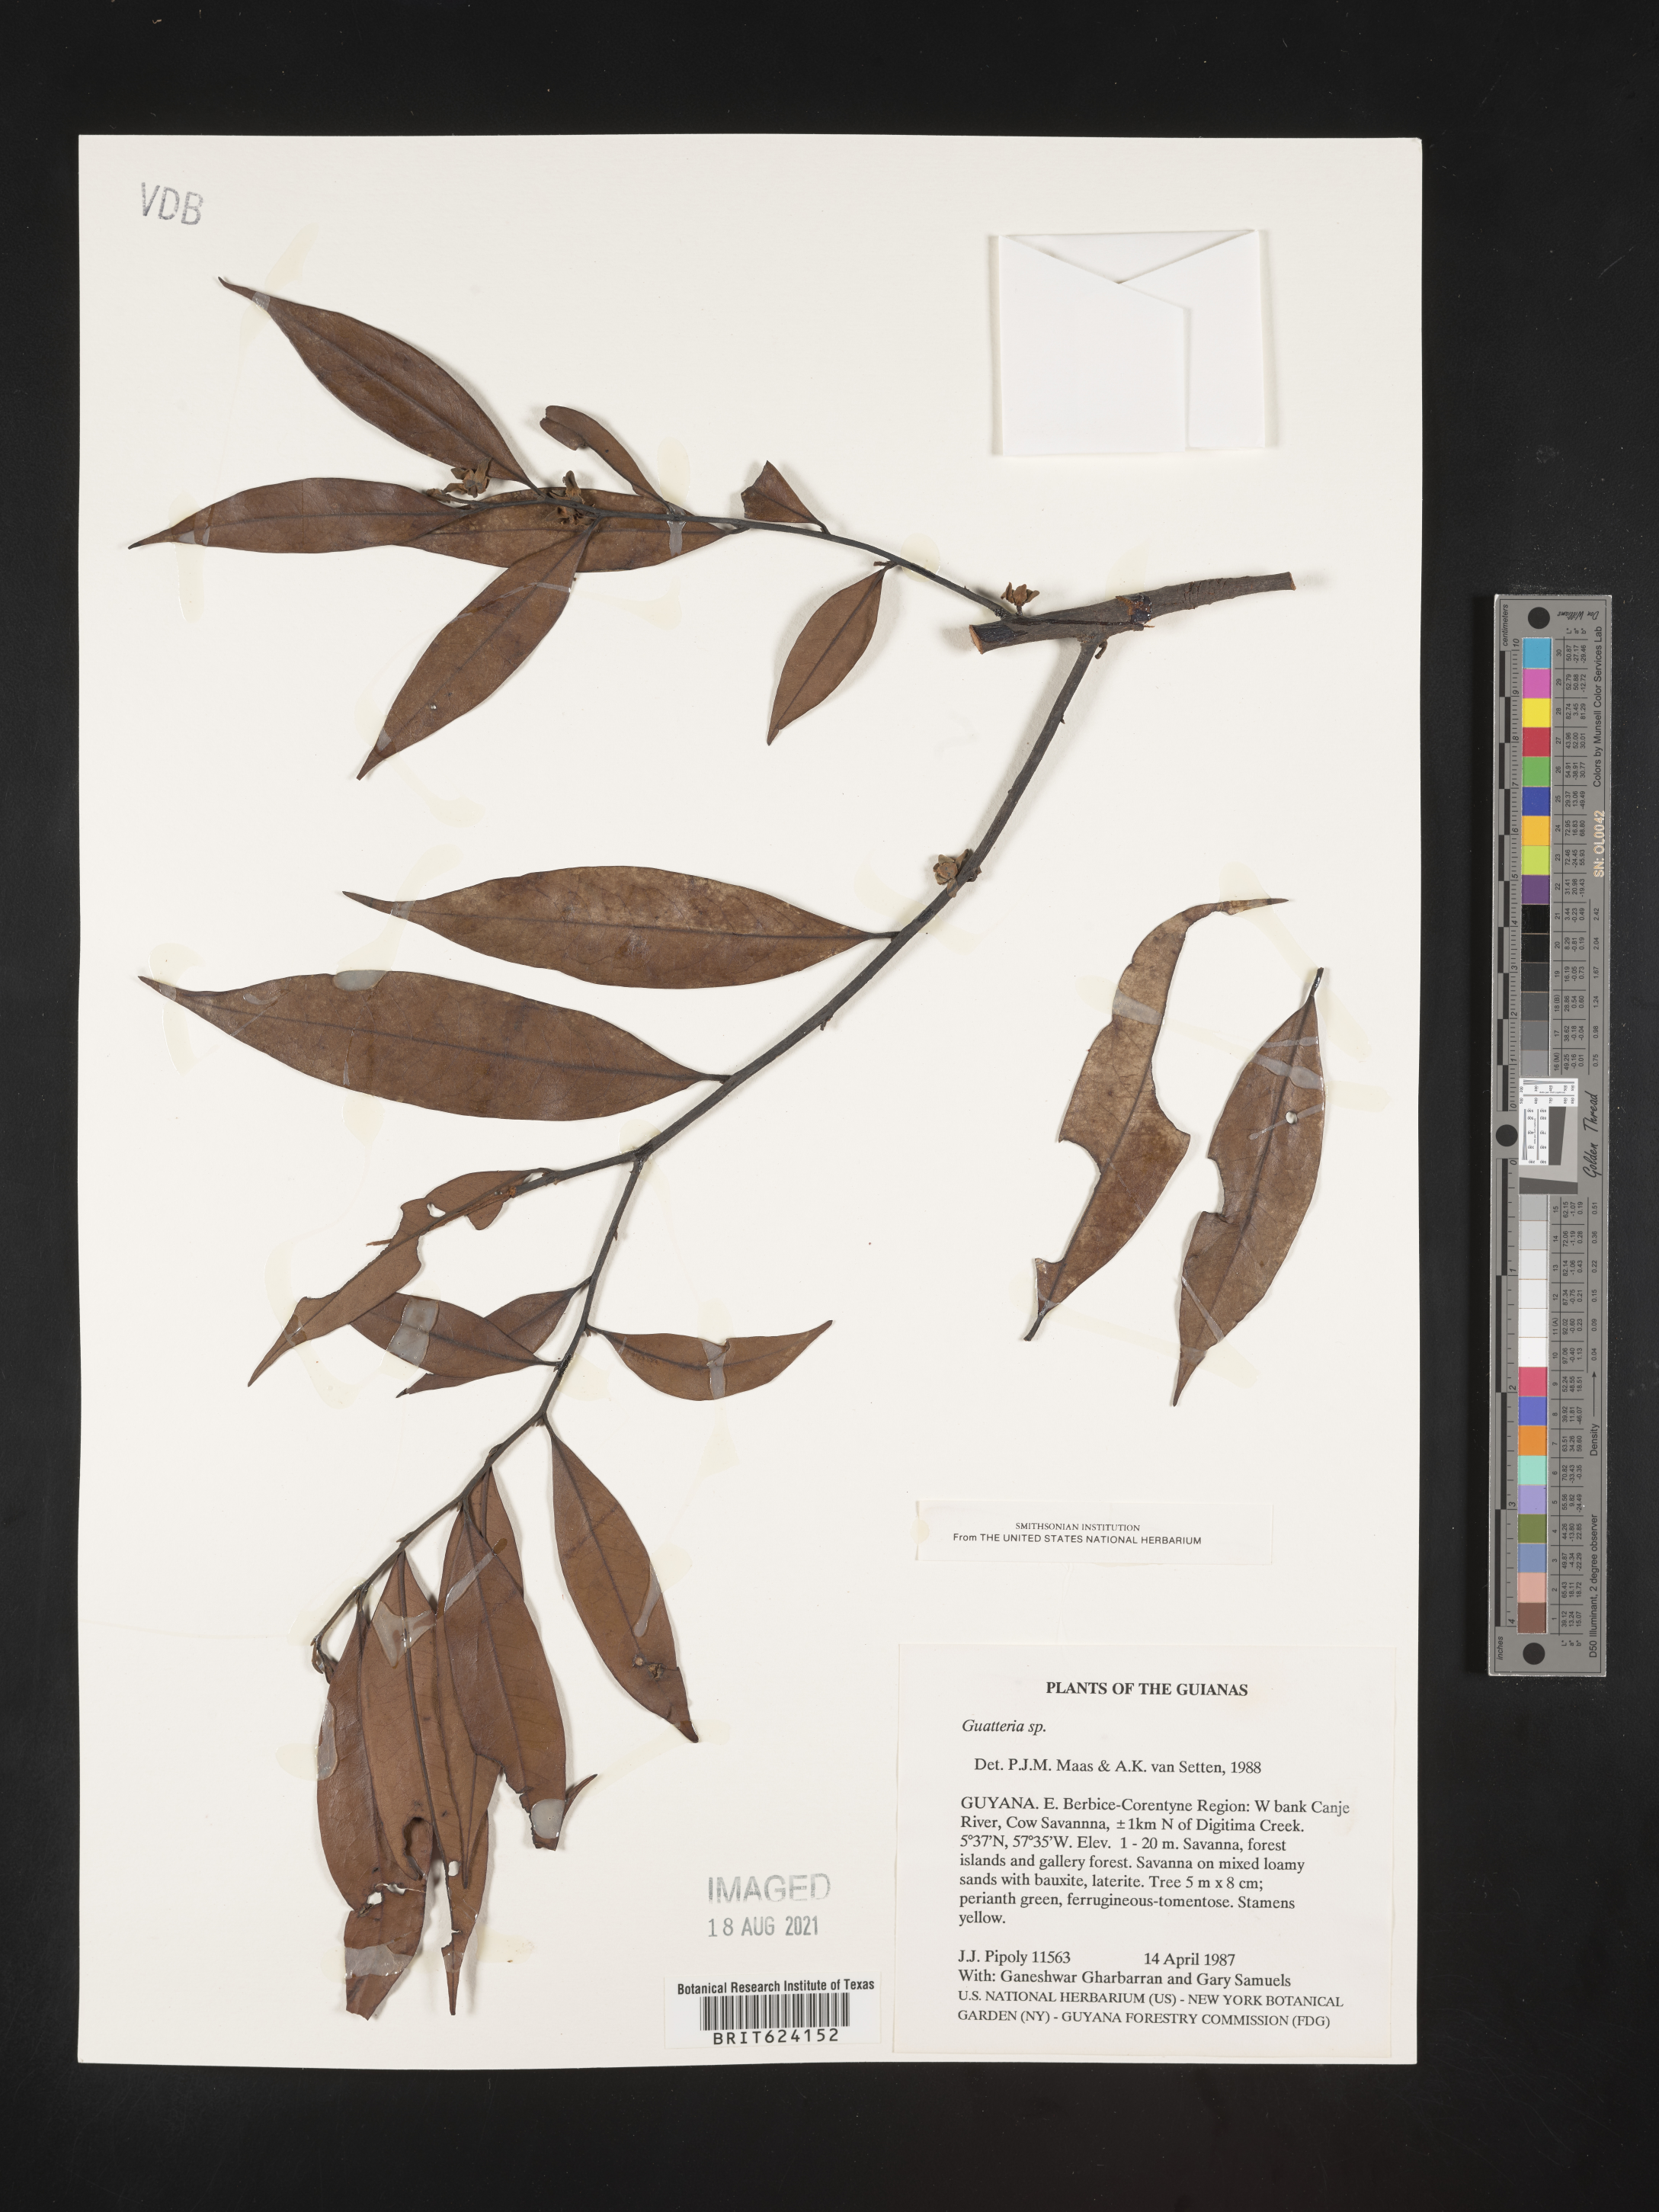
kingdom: Plantae
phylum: Tracheophyta
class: Magnoliopsida
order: Magnoliales
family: Annonaceae
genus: Guatteria
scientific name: Guatteria
